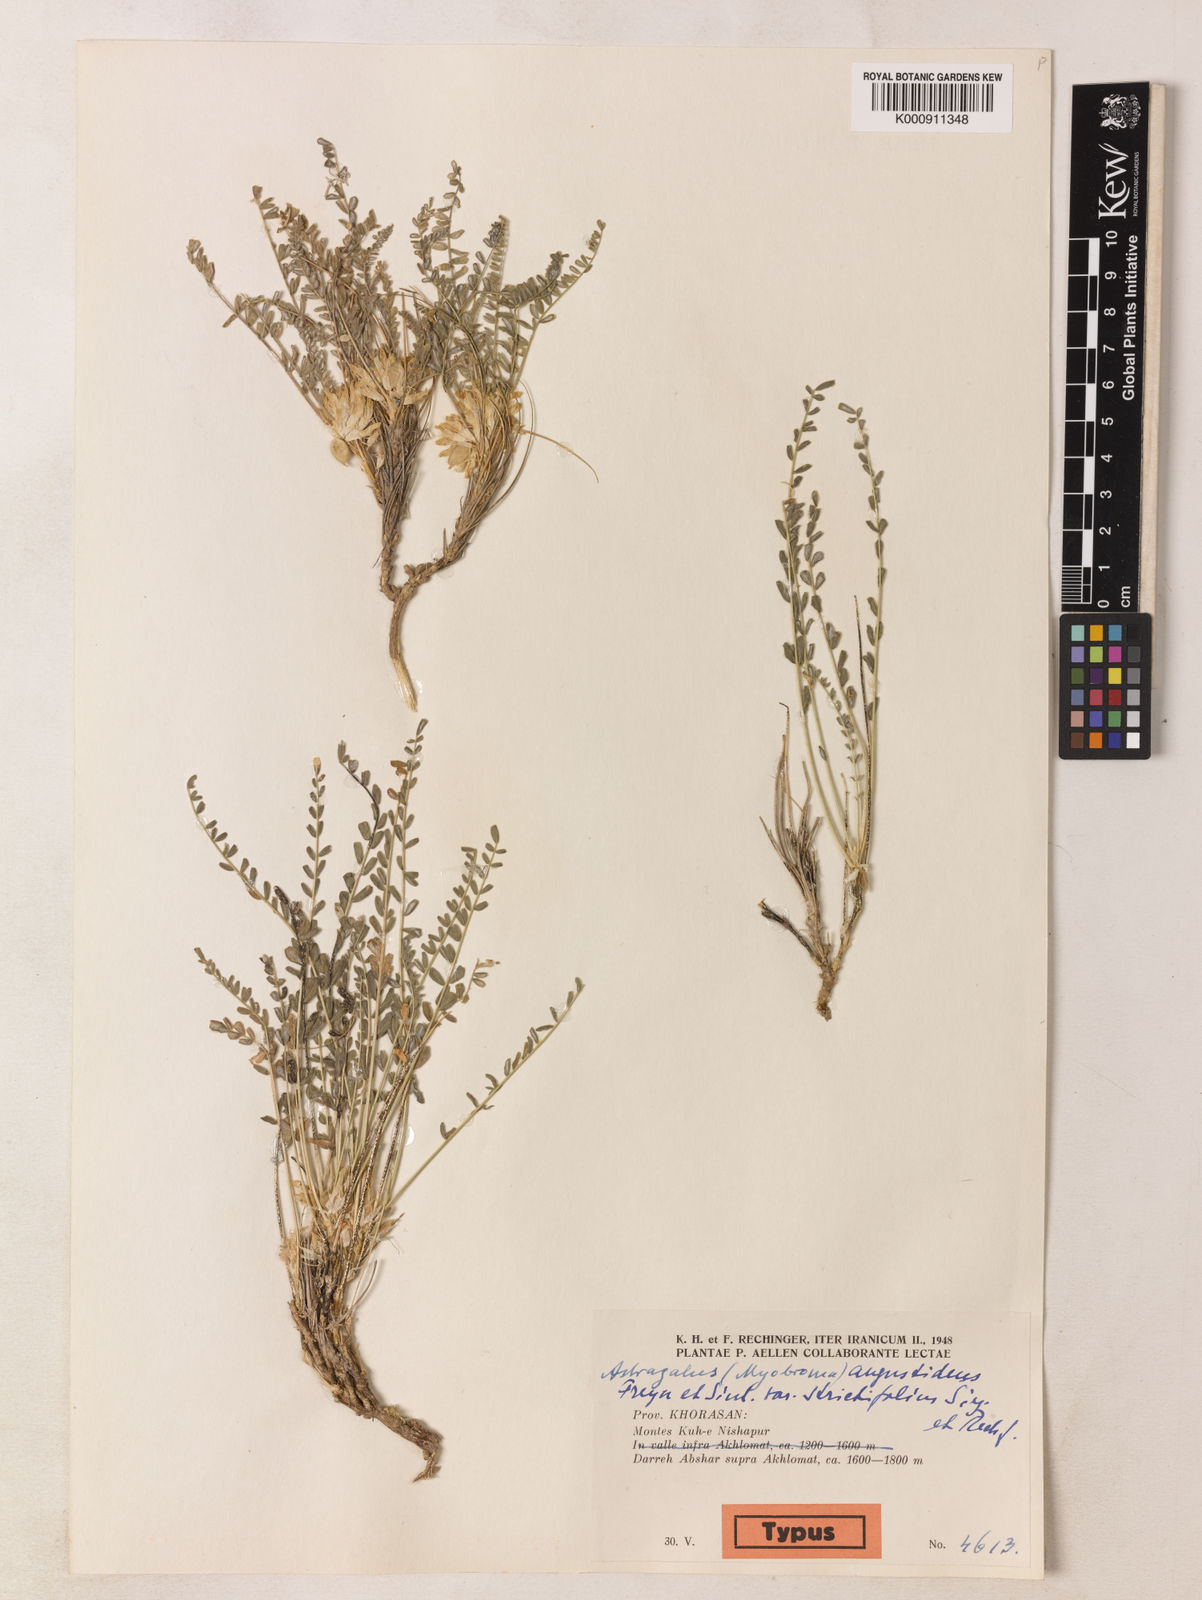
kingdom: Plantae
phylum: Tracheophyta
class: Magnoliopsida
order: Fabales
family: Fabaceae
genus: Astragalus
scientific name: Astragalus citrinus
